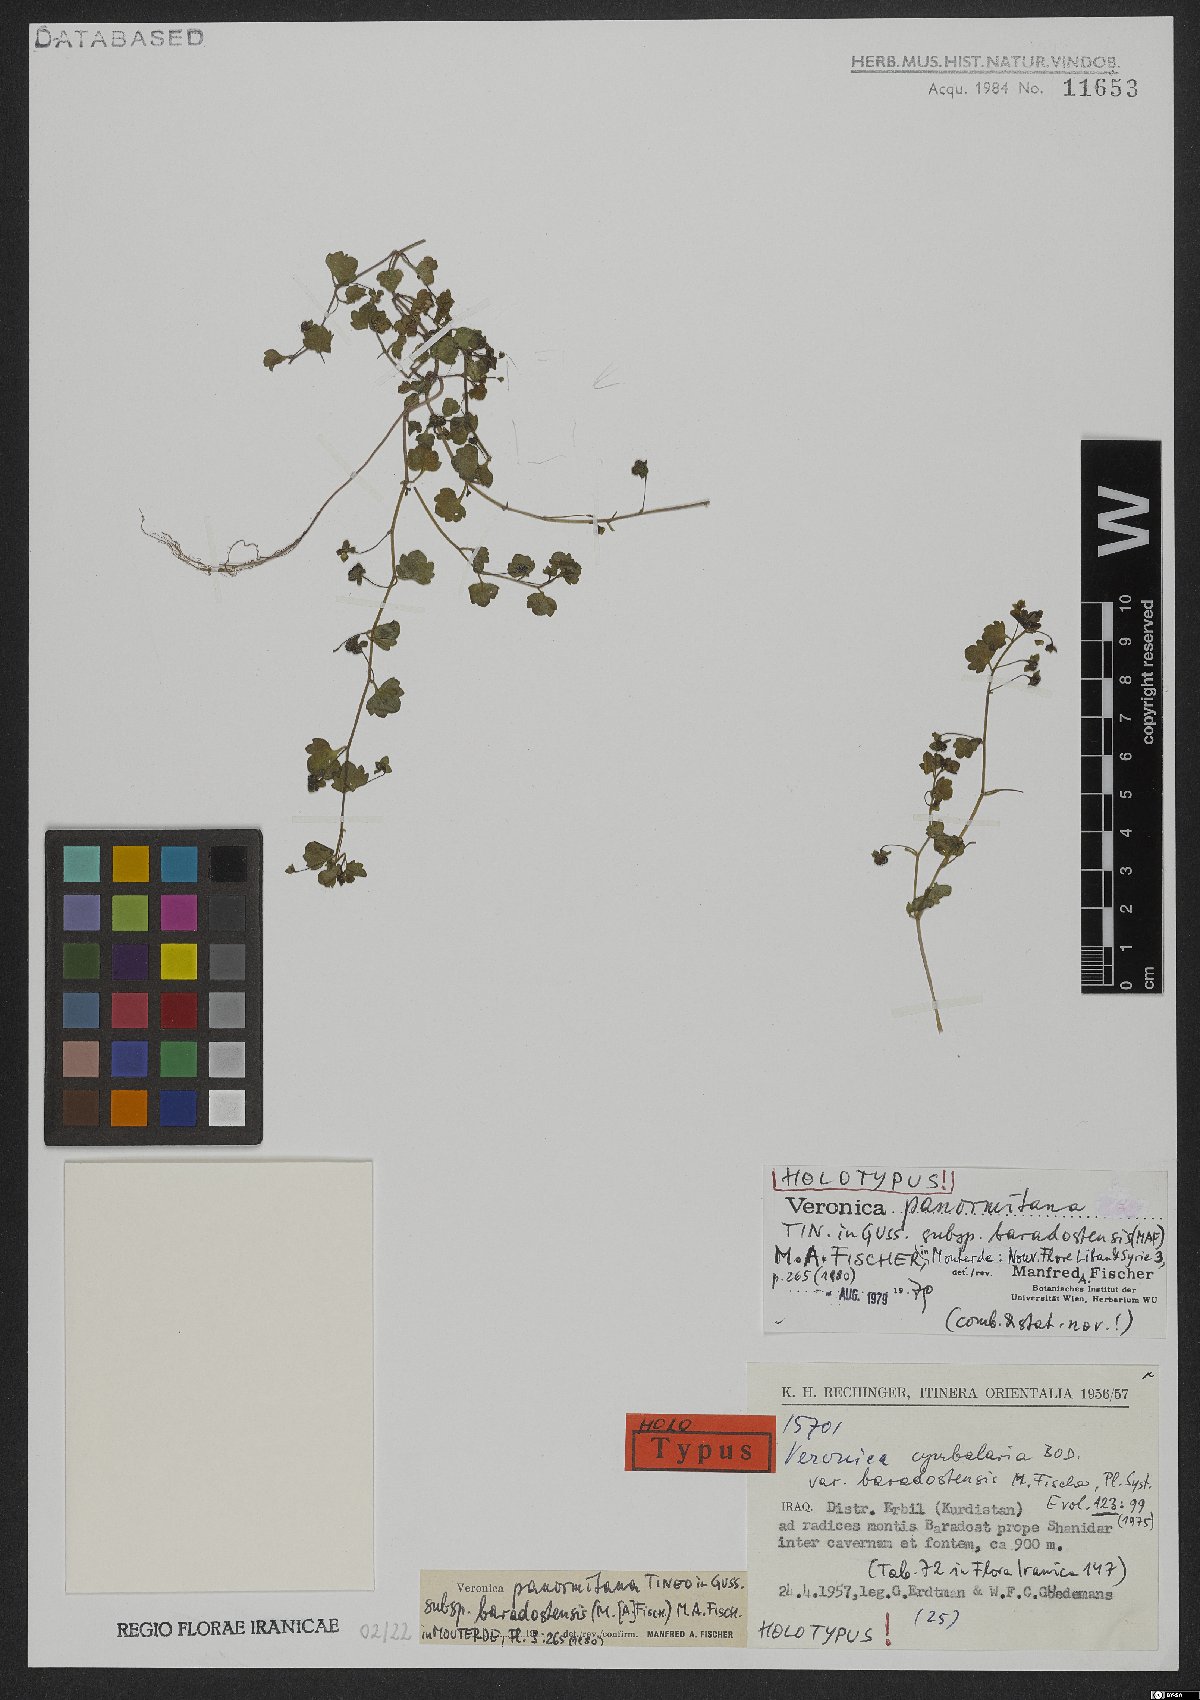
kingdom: Plantae
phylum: Tracheophyta
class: Magnoliopsida
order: Lamiales
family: Plantaginaceae
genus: Veronica
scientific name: Veronica panormitana
